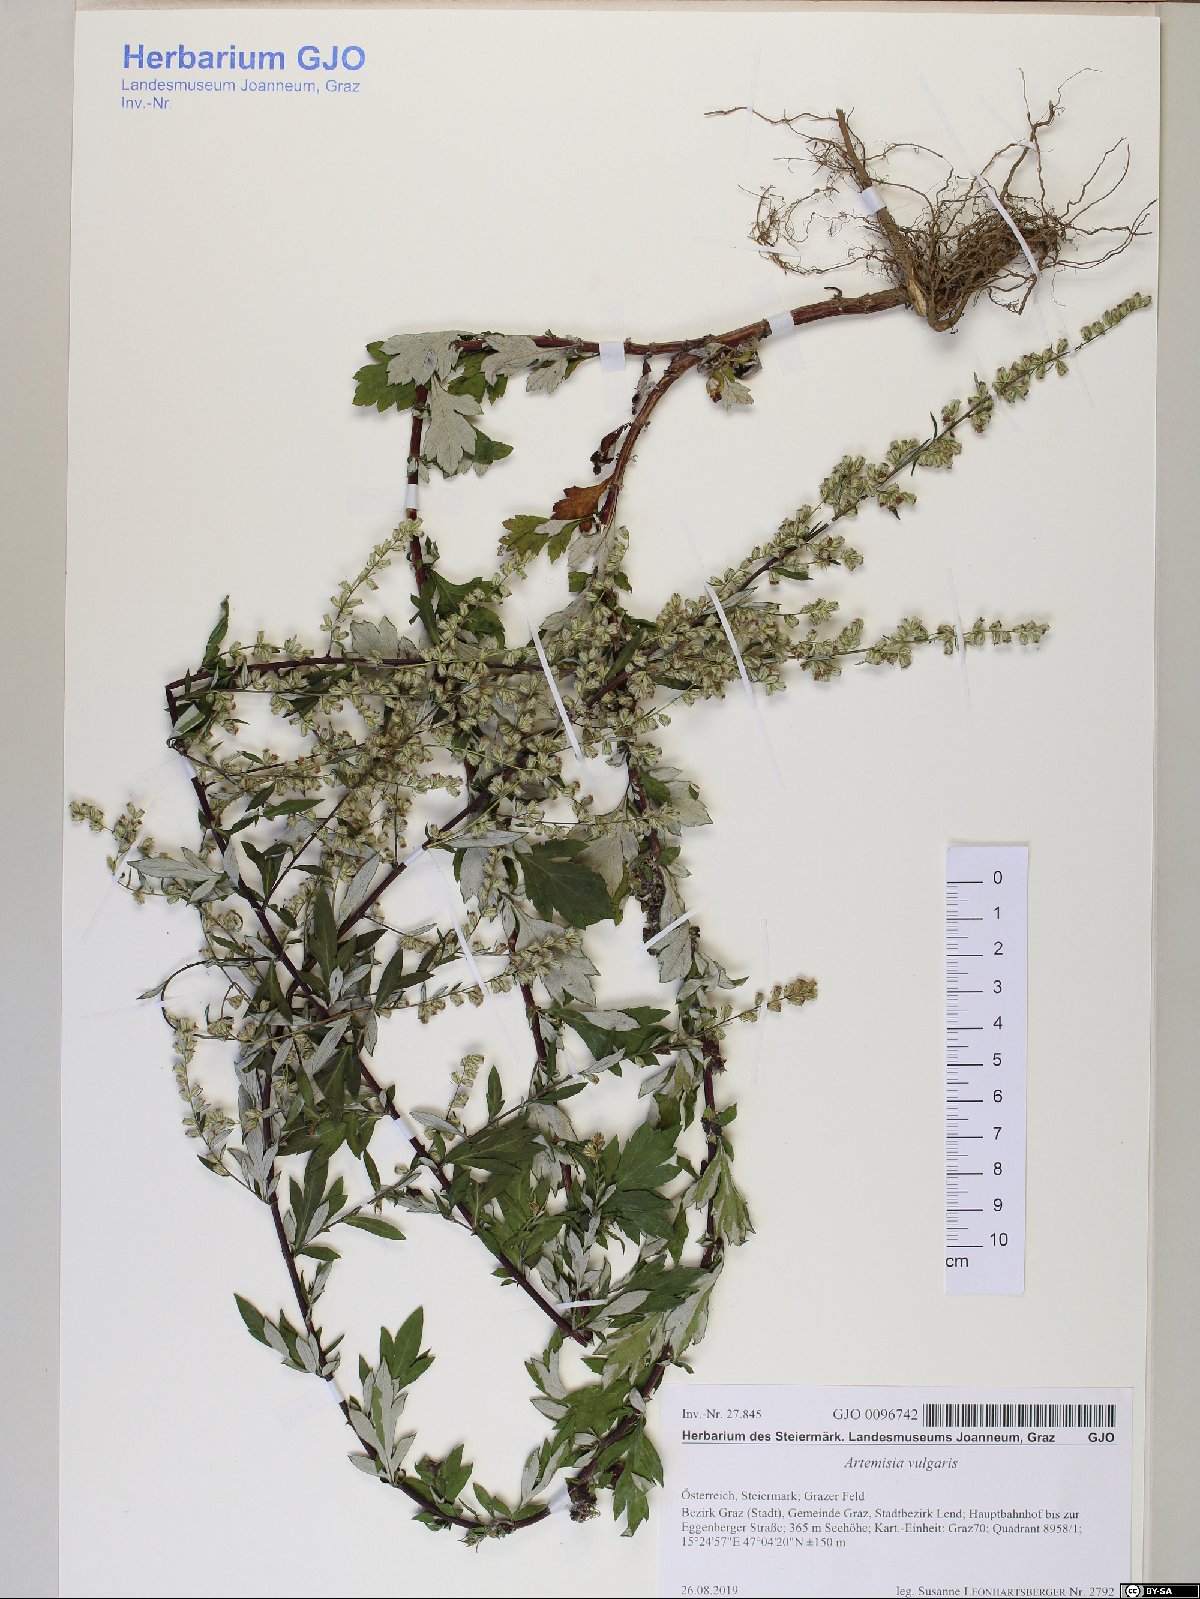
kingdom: Plantae
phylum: Tracheophyta
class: Magnoliopsida
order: Asterales
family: Asteraceae
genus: Artemisia
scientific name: Artemisia vulgaris
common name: Mugwort
